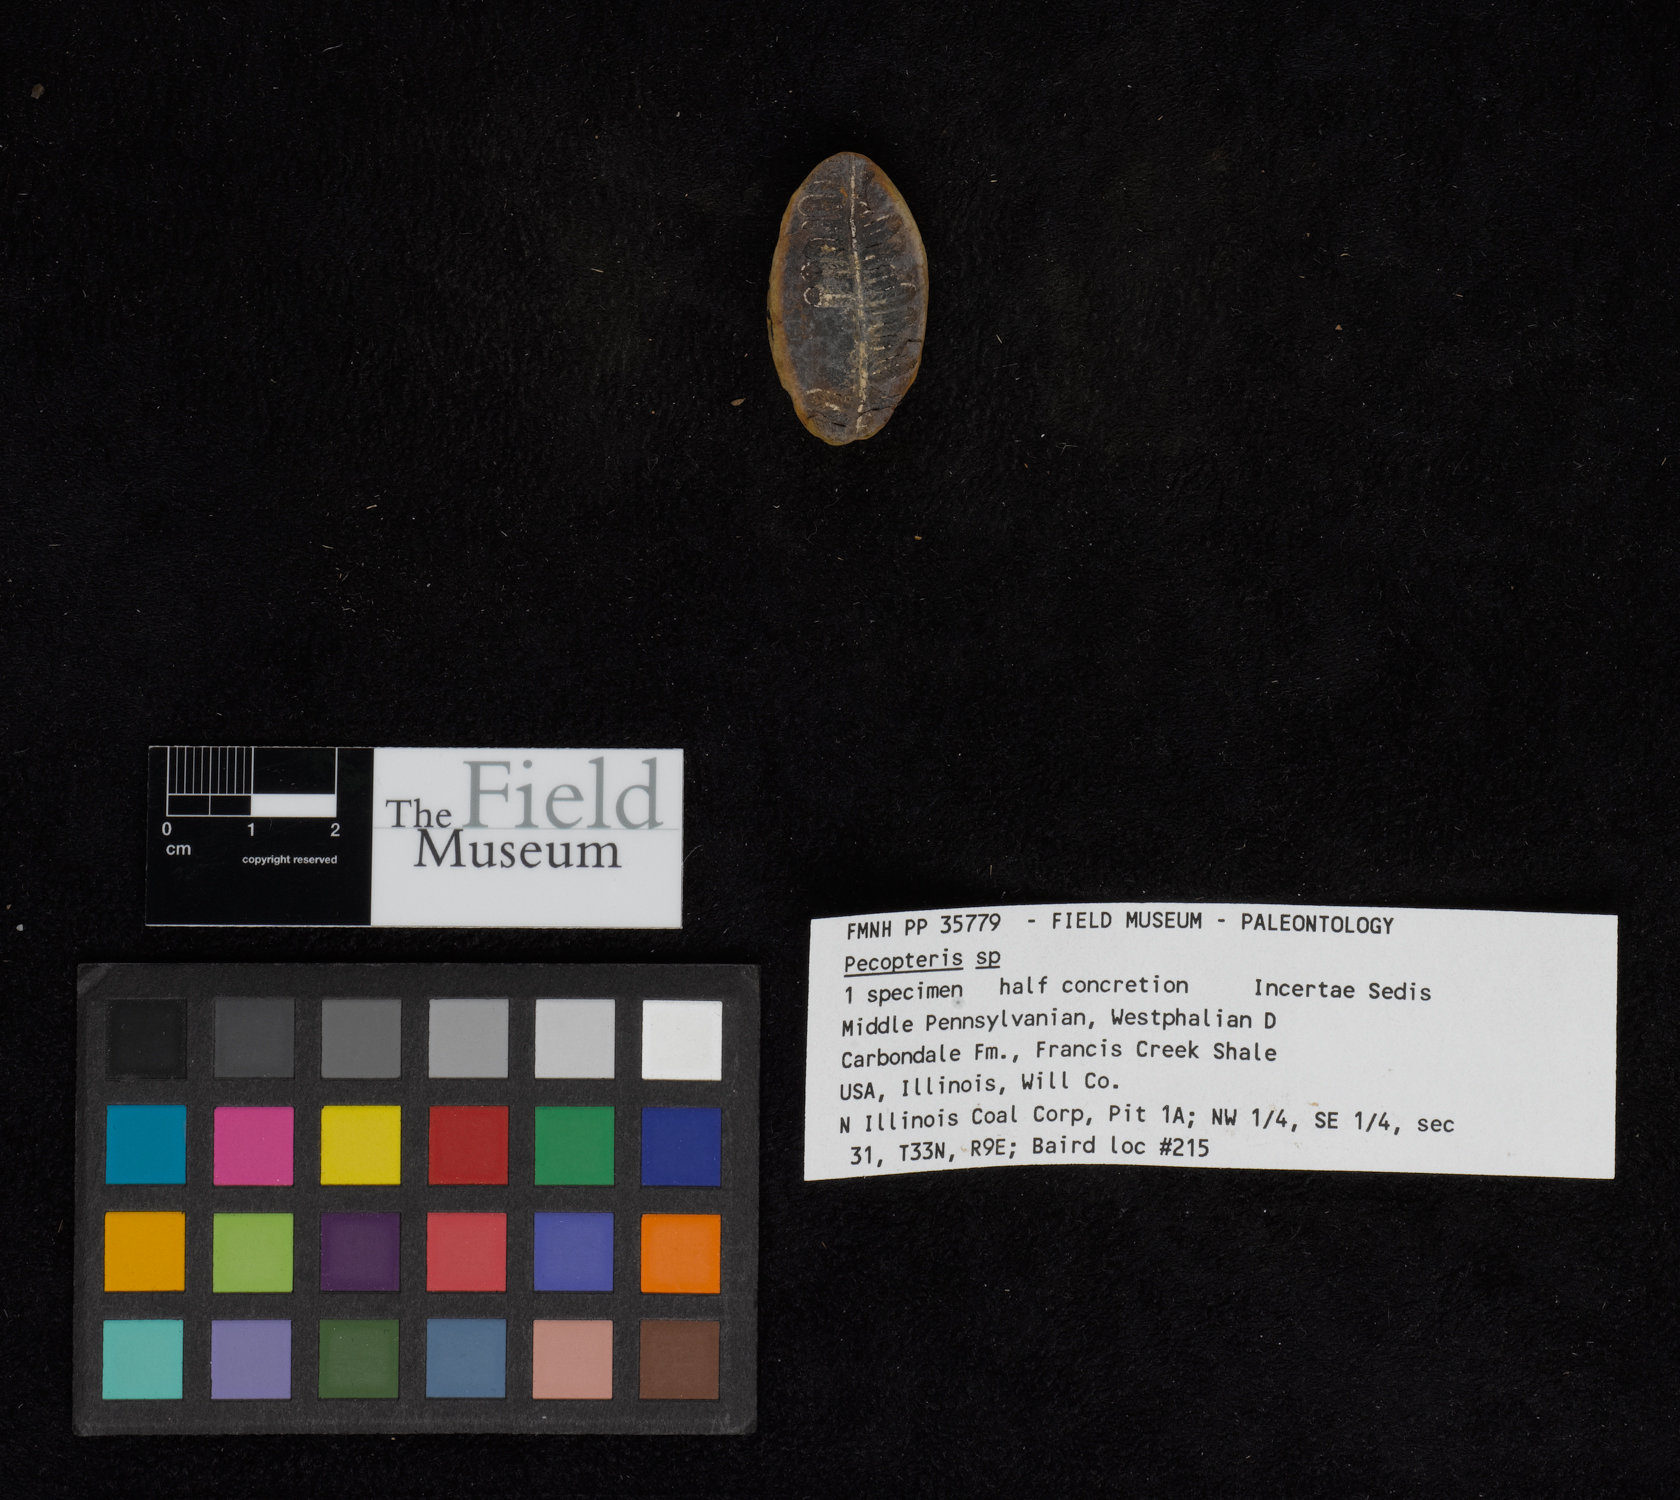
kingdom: Plantae
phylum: Tracheophyta
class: Polypodiopsida
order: Marattiales
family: Asterothecaceae
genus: Pecopteris
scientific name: Pecopteris
